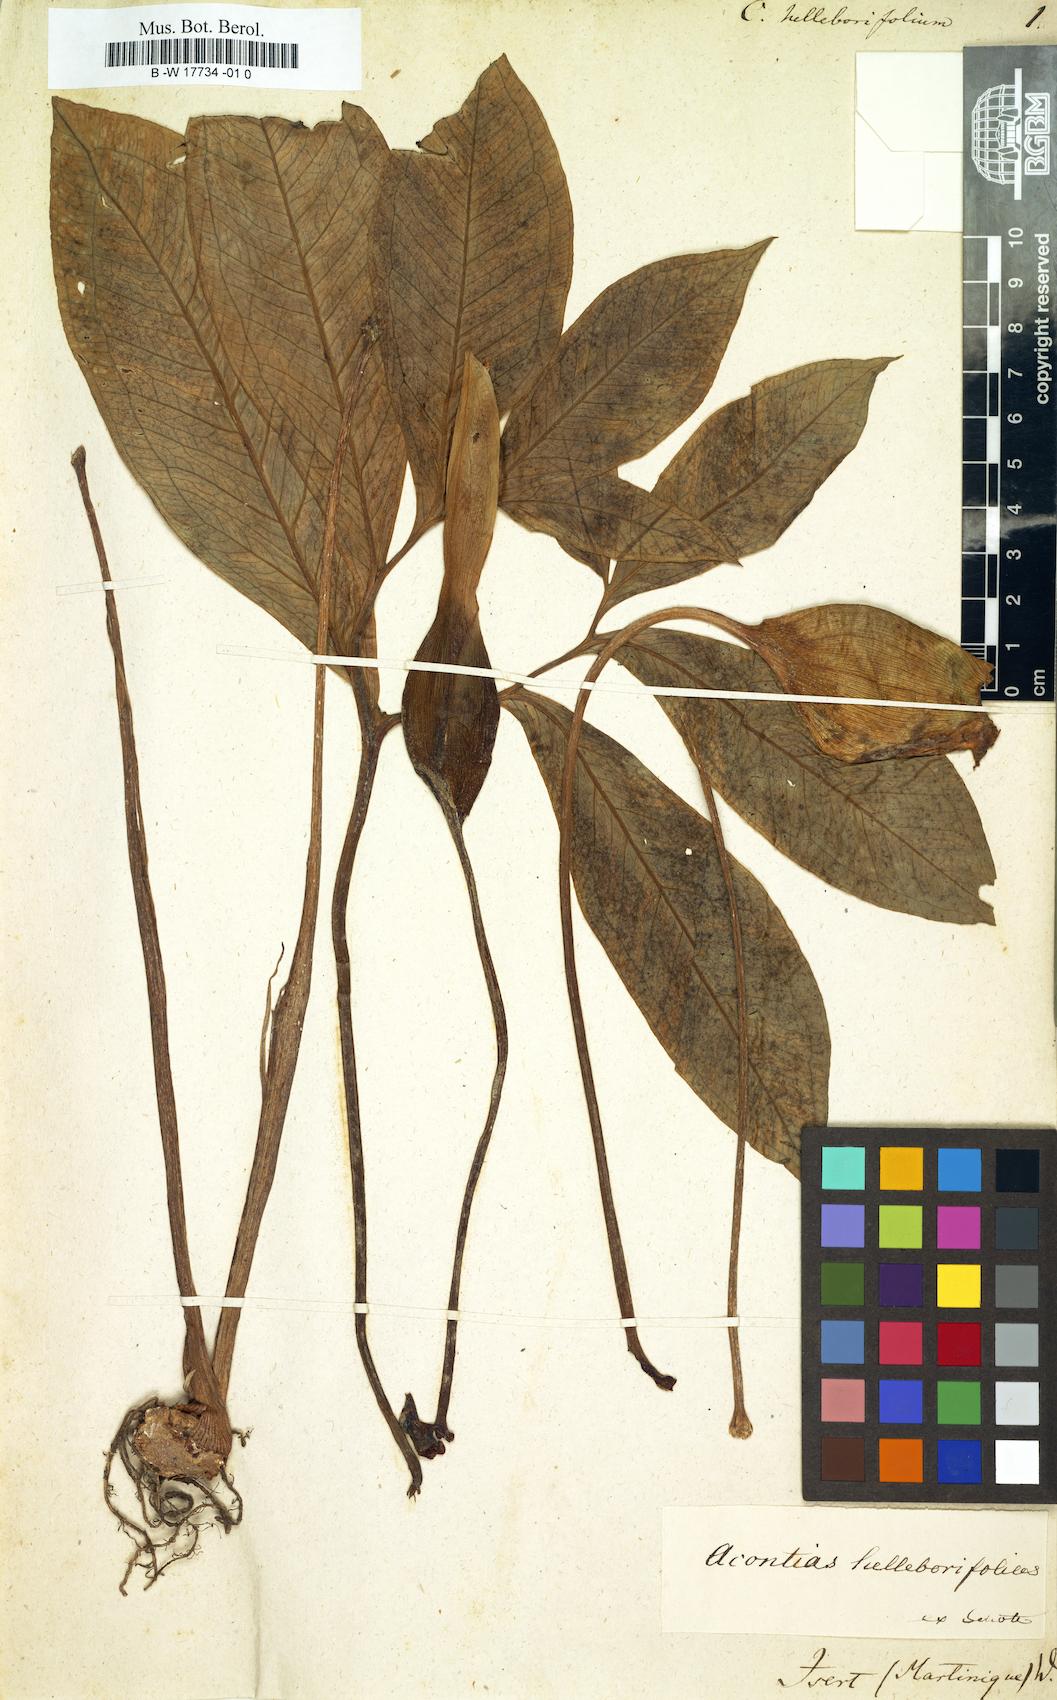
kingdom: Plantae
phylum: Tracheophyta
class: Liliopsida
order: Alismatales
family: Araceae
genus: Xanthosoma
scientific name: Xanthosoma helleborifolium
